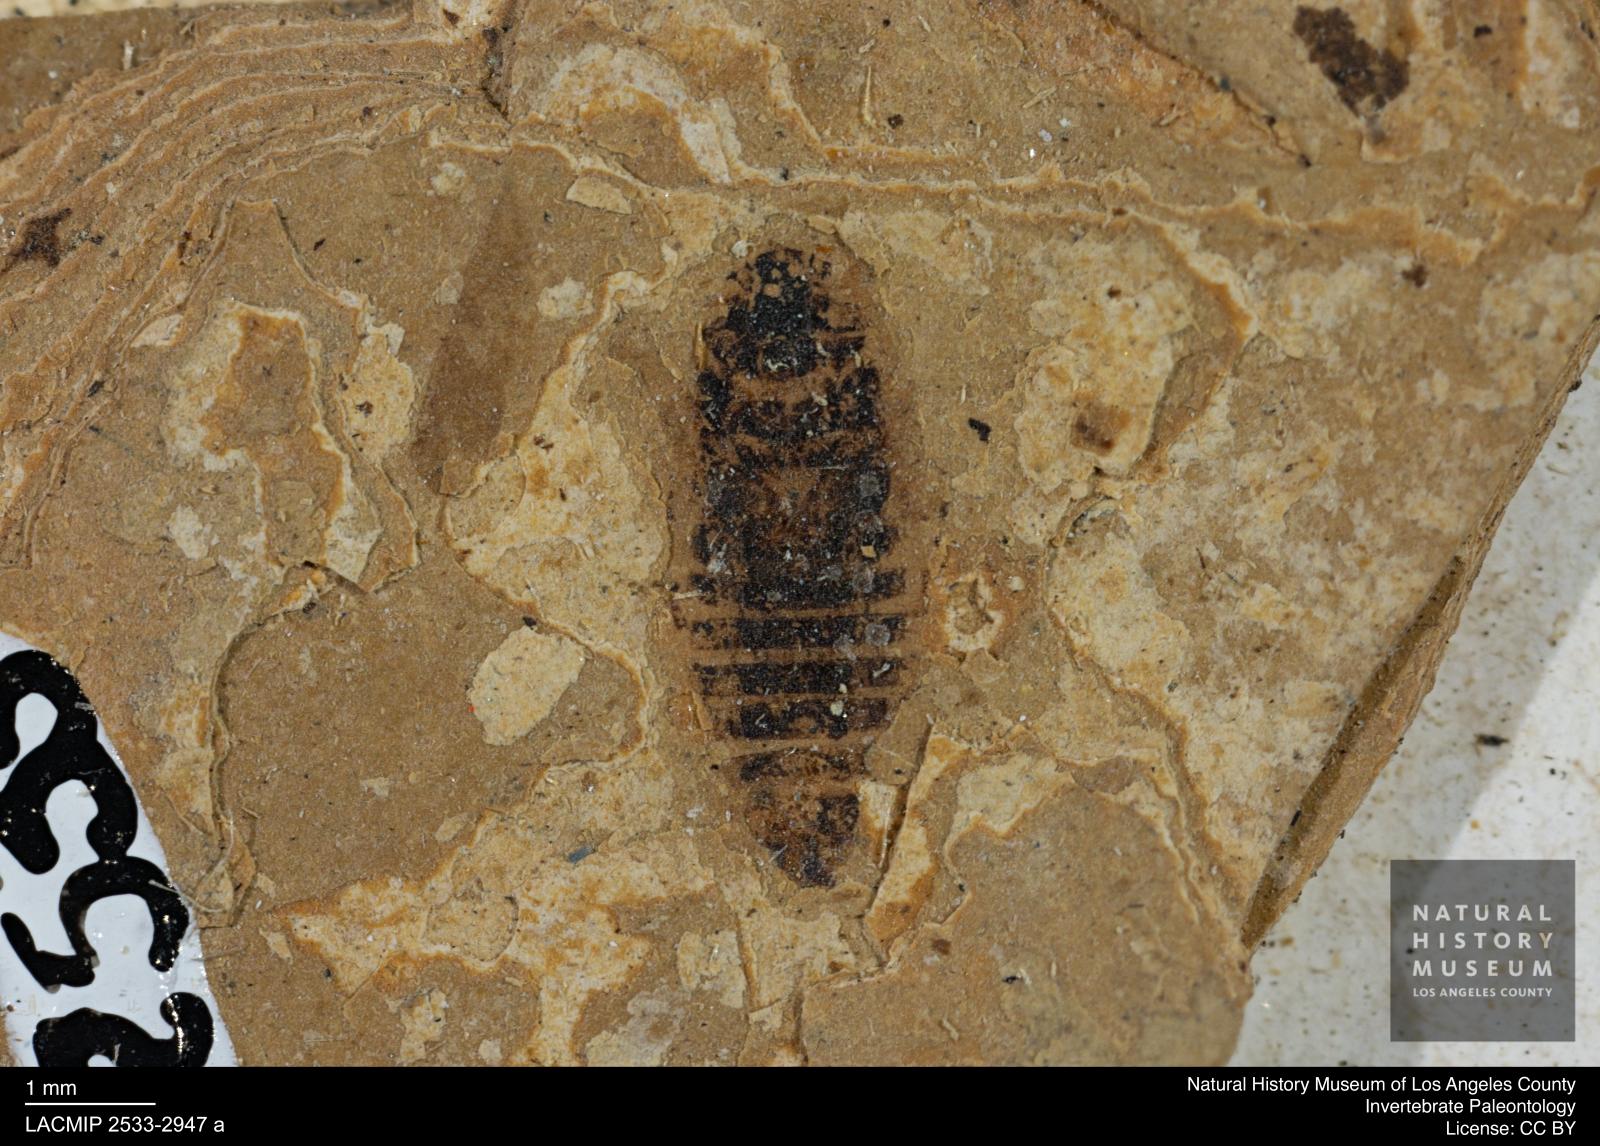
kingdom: Animalia
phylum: Arthropoda
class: Insecta
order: Hemiptera
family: Cicadellidae
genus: Thamnotettix
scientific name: Thamnotettix
